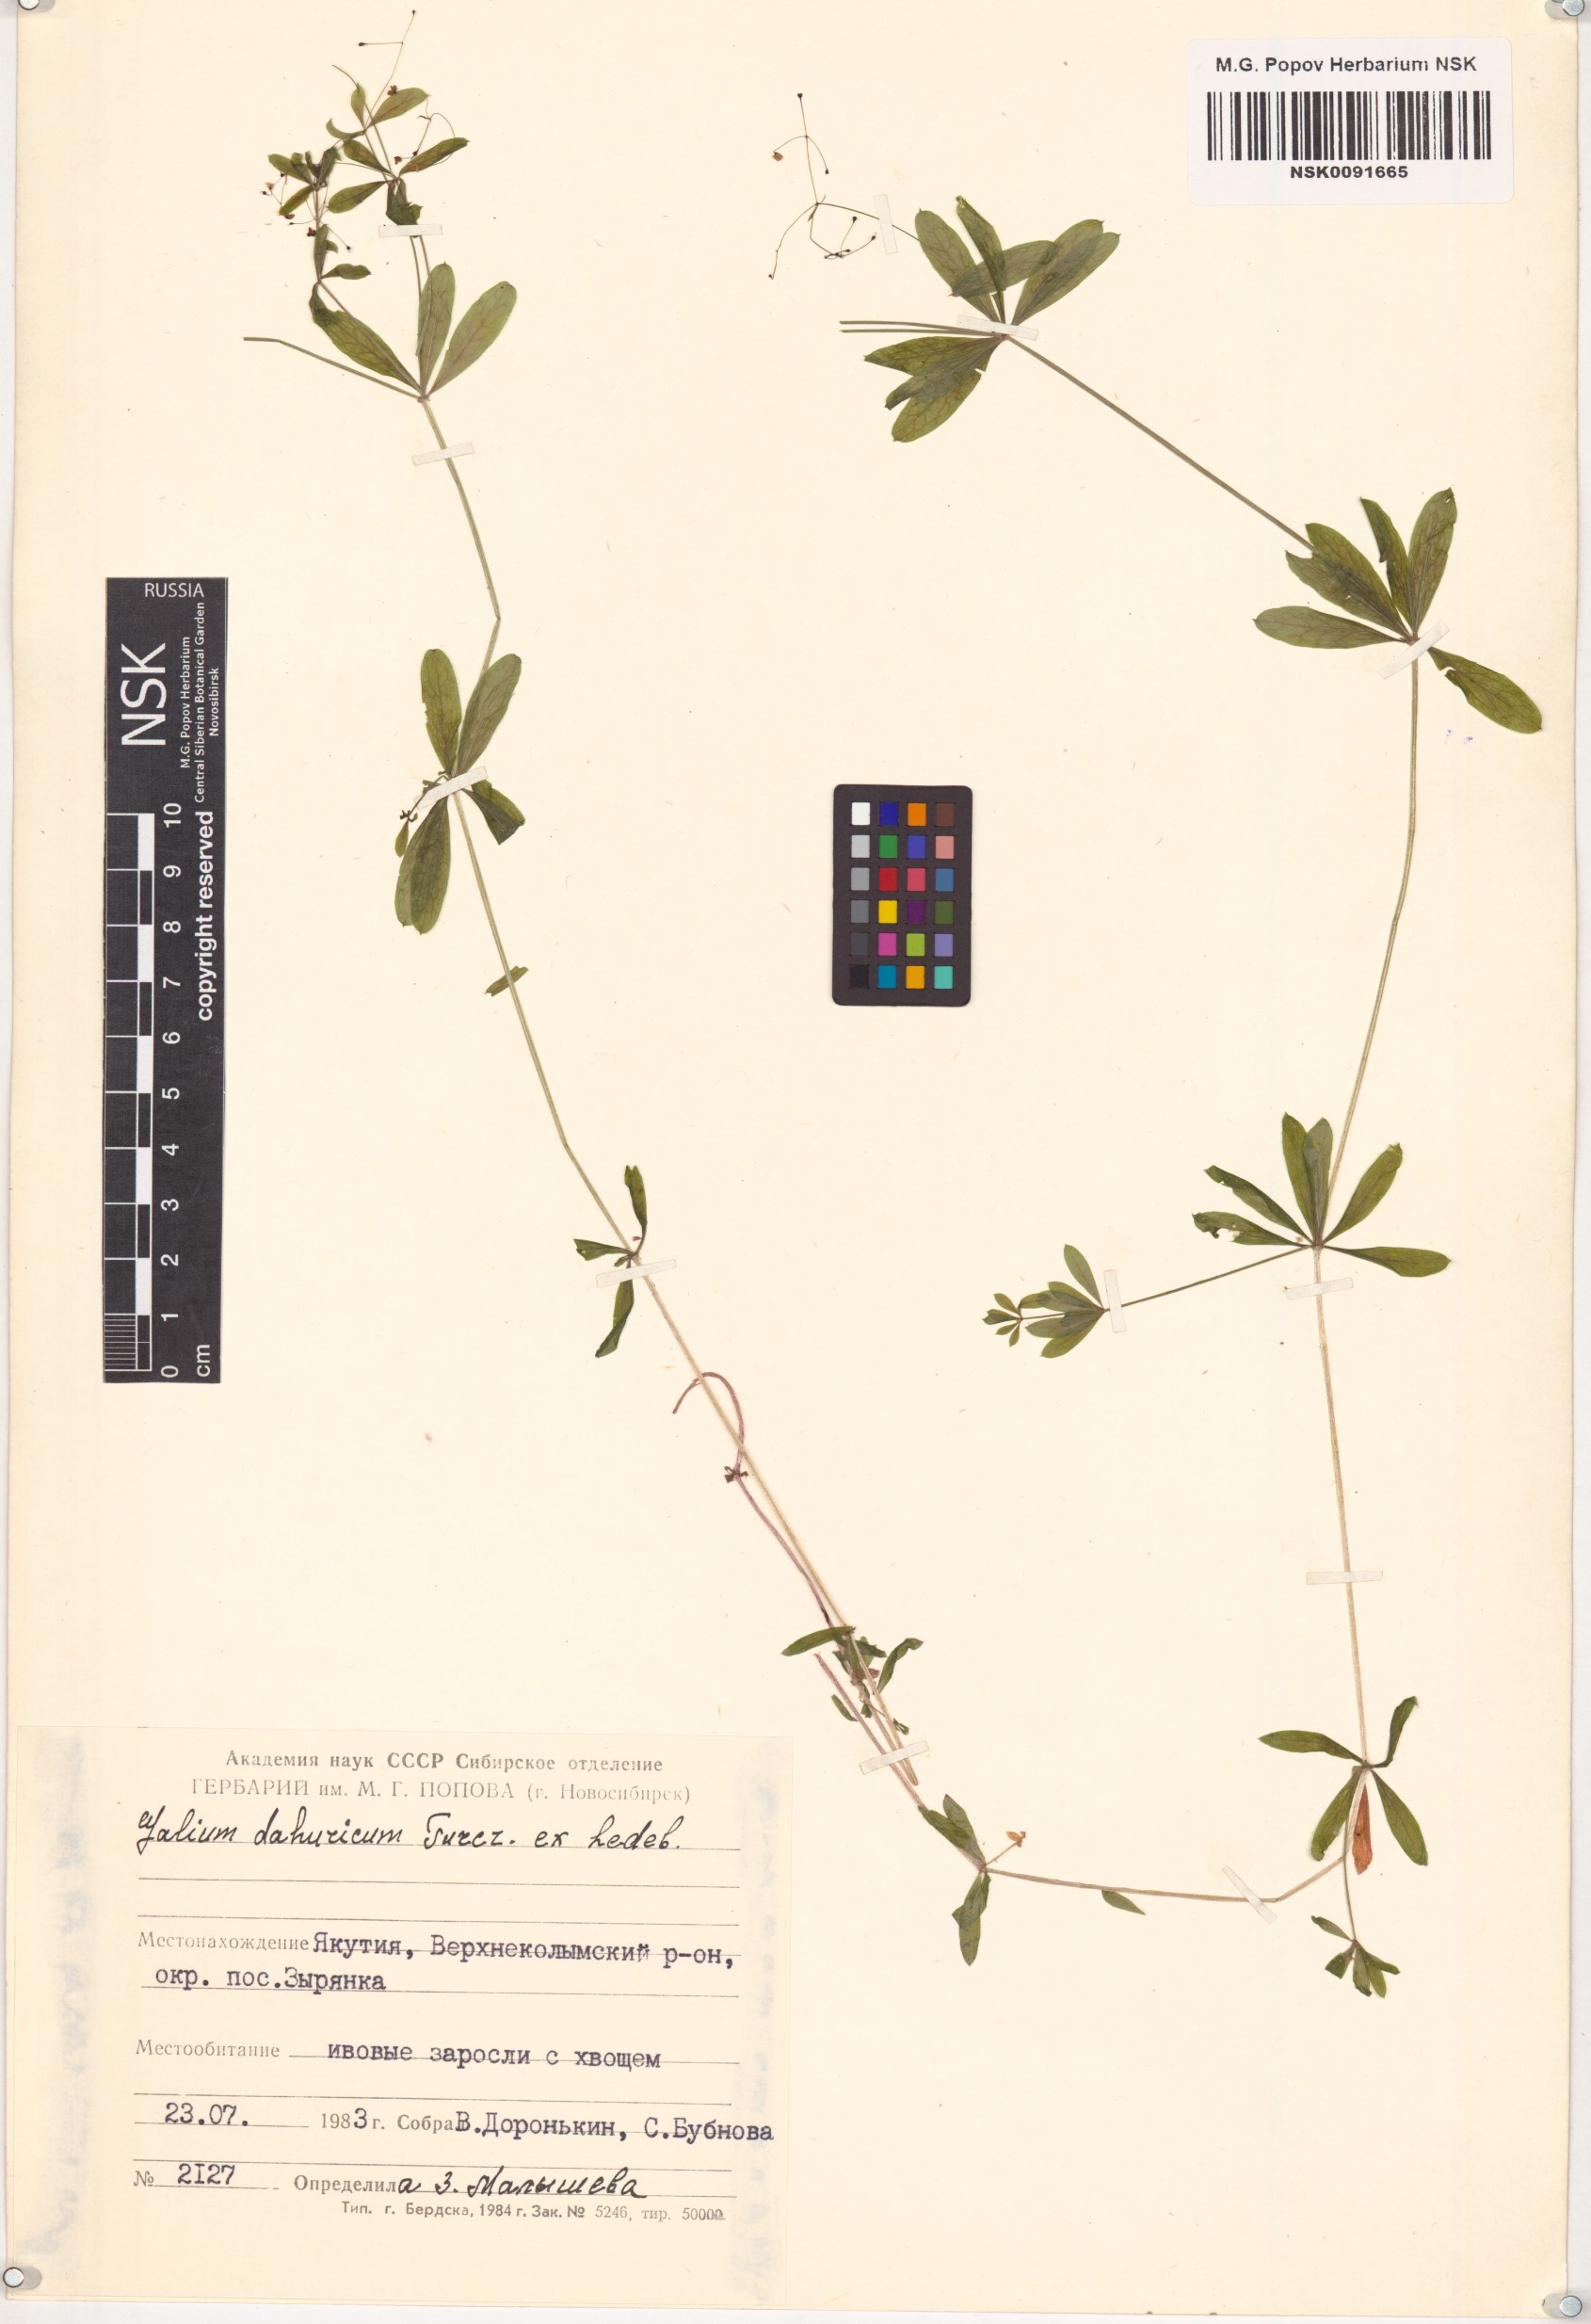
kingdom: Plantae
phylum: Tracheophyta
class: Magnoliopsida
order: Gentianales
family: Rubiaceae
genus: Galium
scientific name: Galium dahuricum
